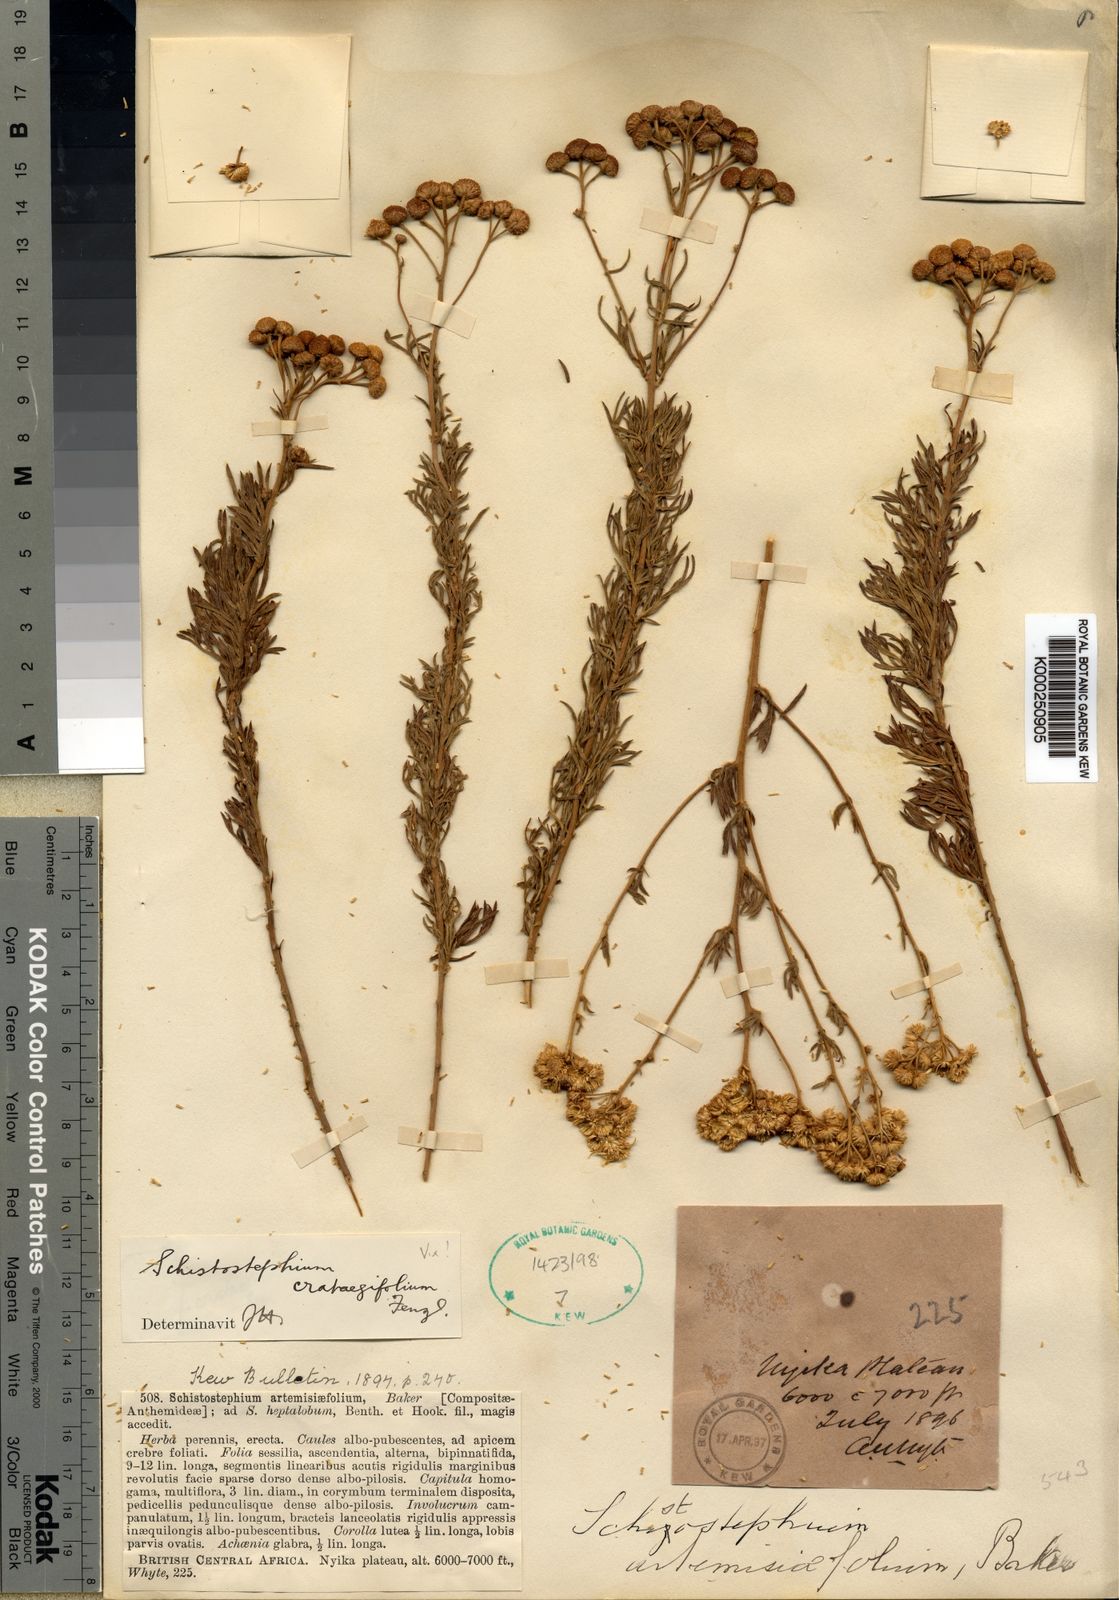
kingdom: Plantae
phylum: Tracheophyta
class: Magnoliopsida
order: Asterales
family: Asteraceae
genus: Schistostephium
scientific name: Schistostephium crataegifolium
